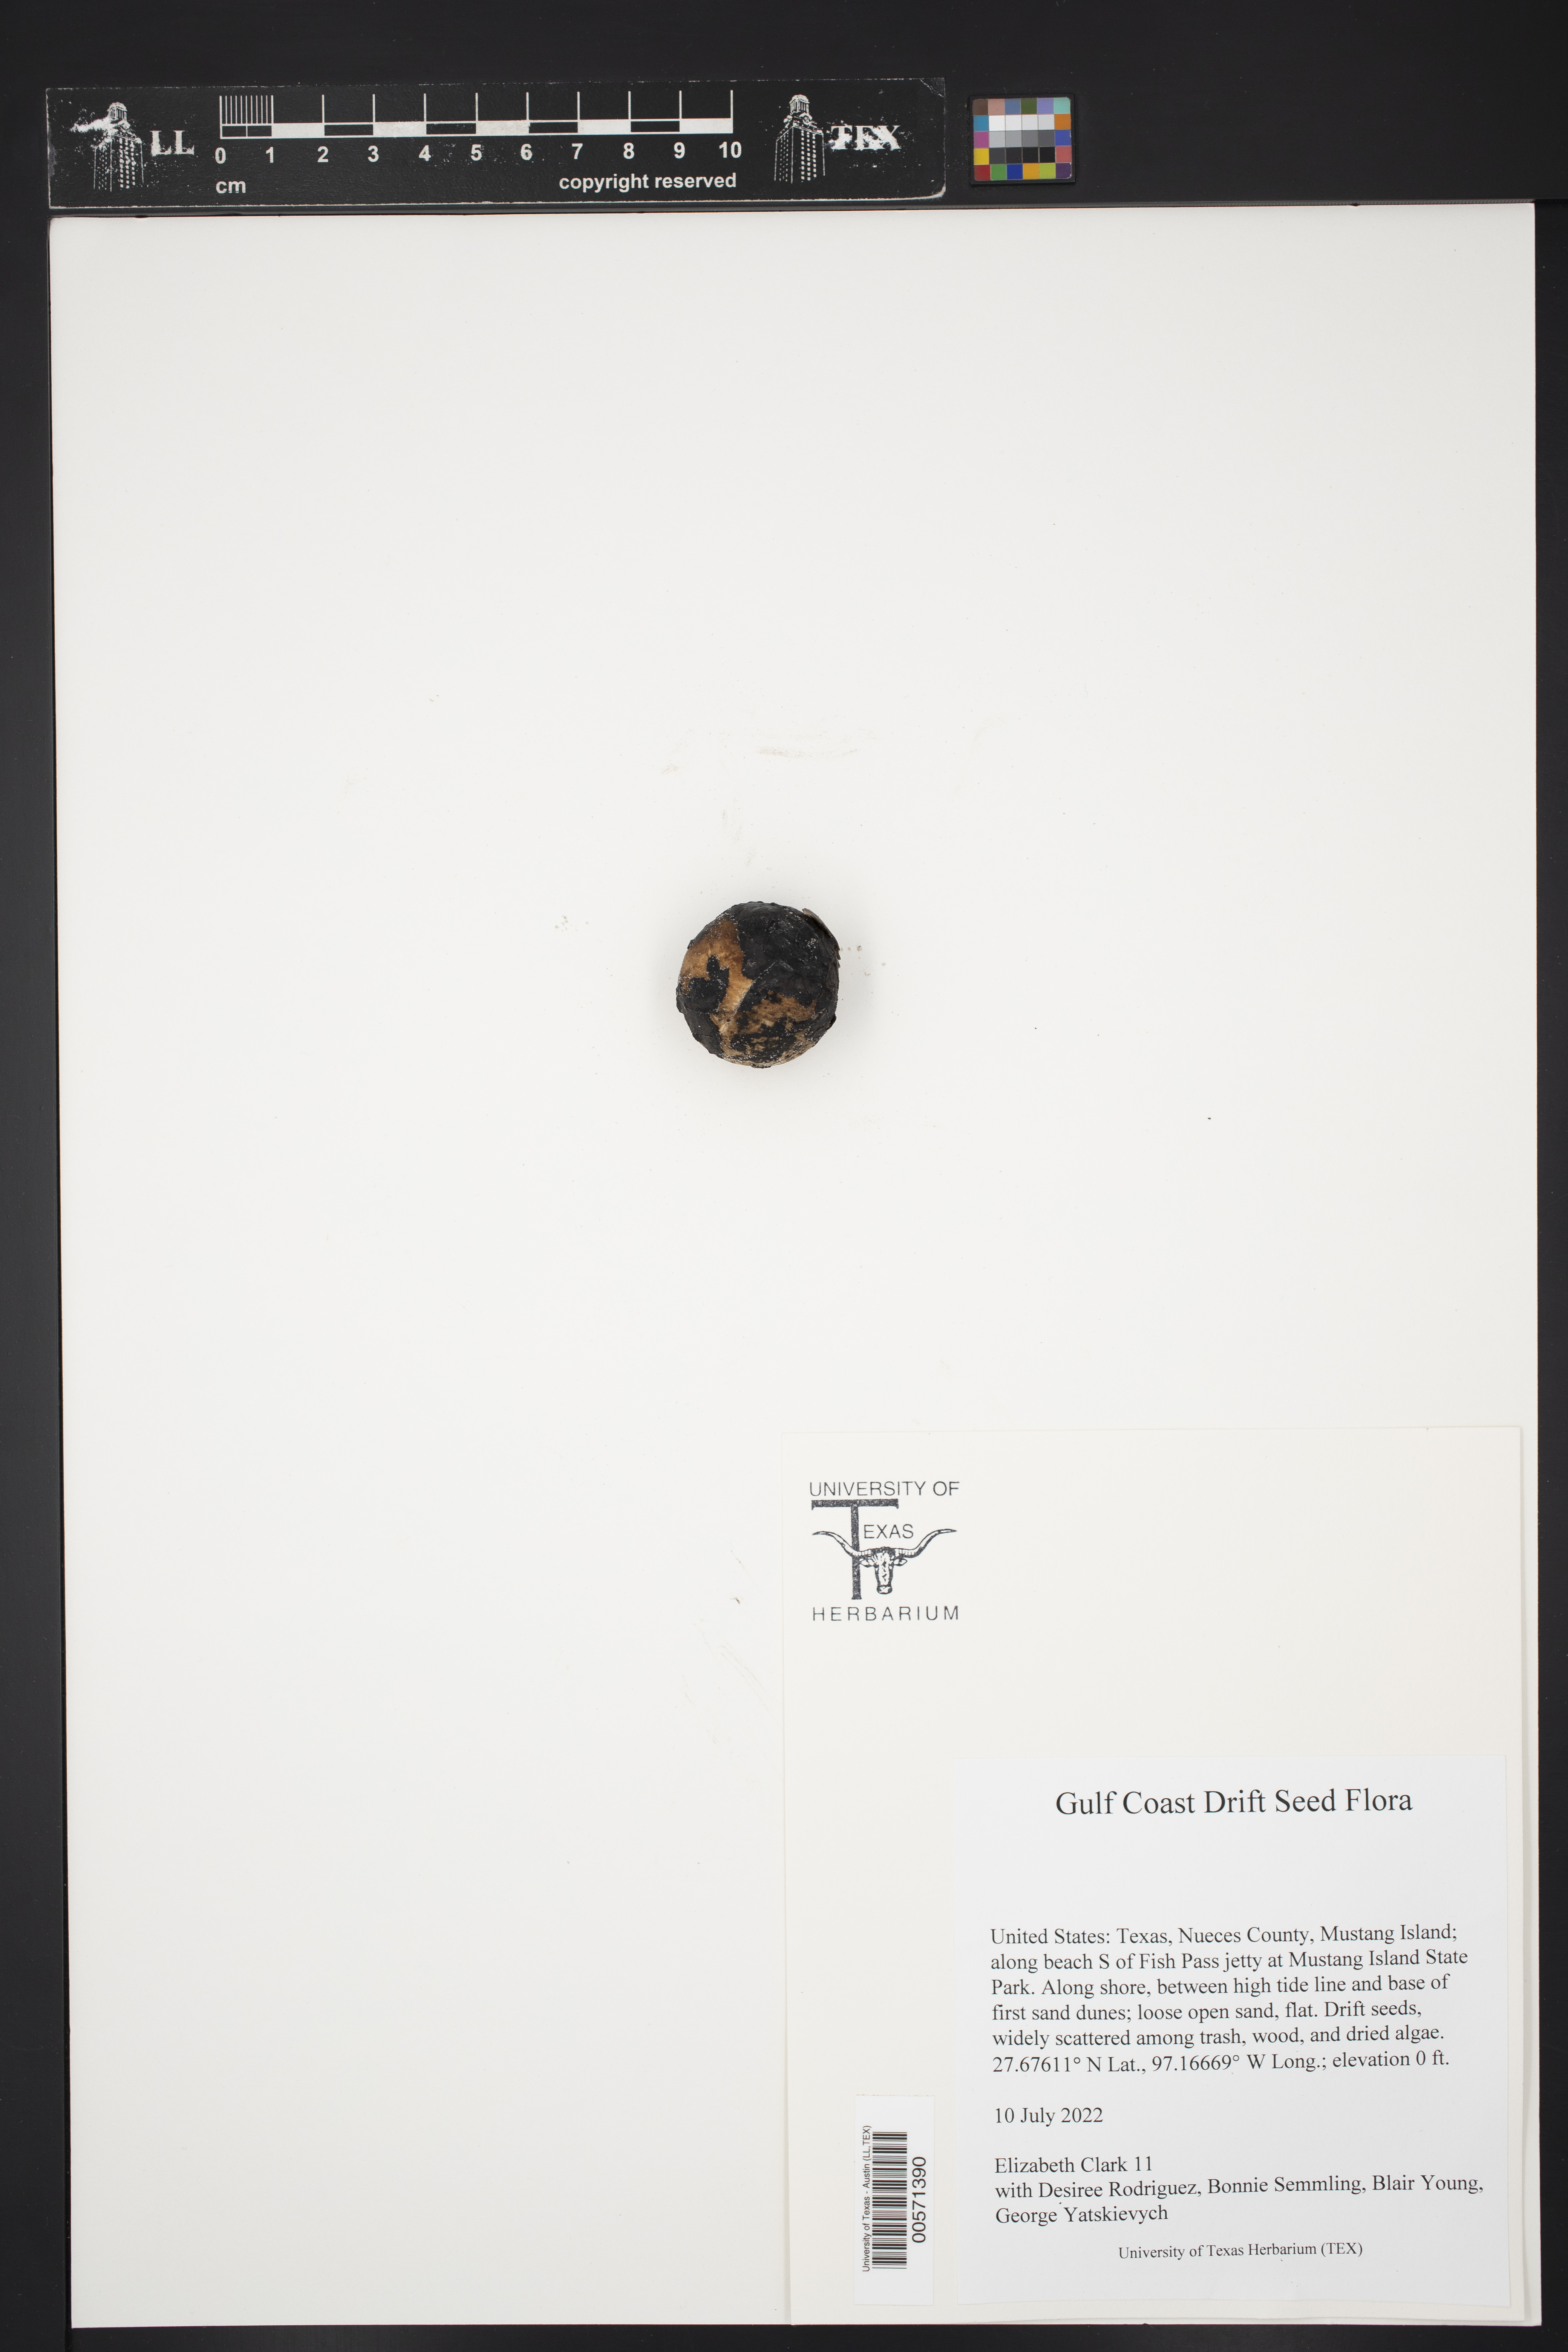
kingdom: Plantae
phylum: Tracheophyta
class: Liliopsida
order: Arecales
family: Arecaceae
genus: Manicaria
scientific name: Manicaria saccifera
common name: Sea coconut
